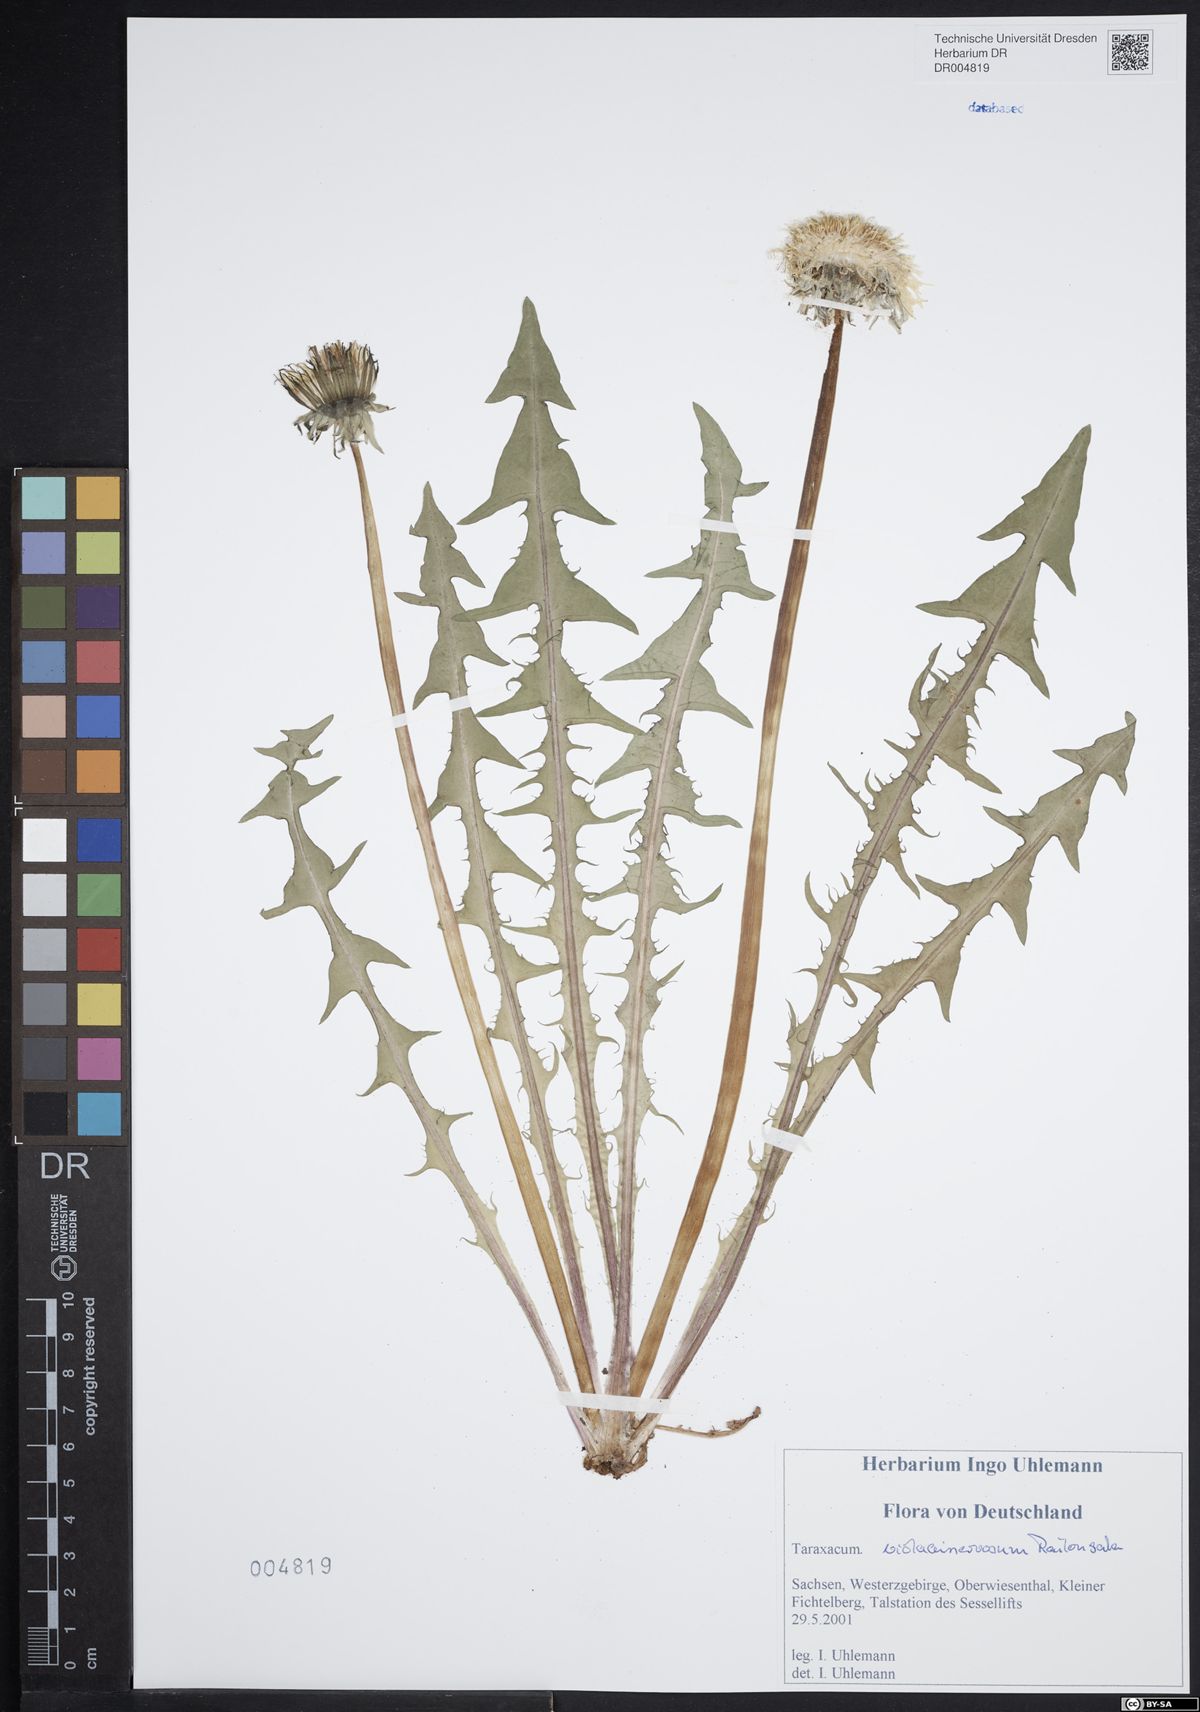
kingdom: Plantae
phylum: Tracheophyta
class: Magnoliopsida
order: Asterales
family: Asteraceae
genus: Taraxacum
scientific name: Taraxacum violaceinervosum
